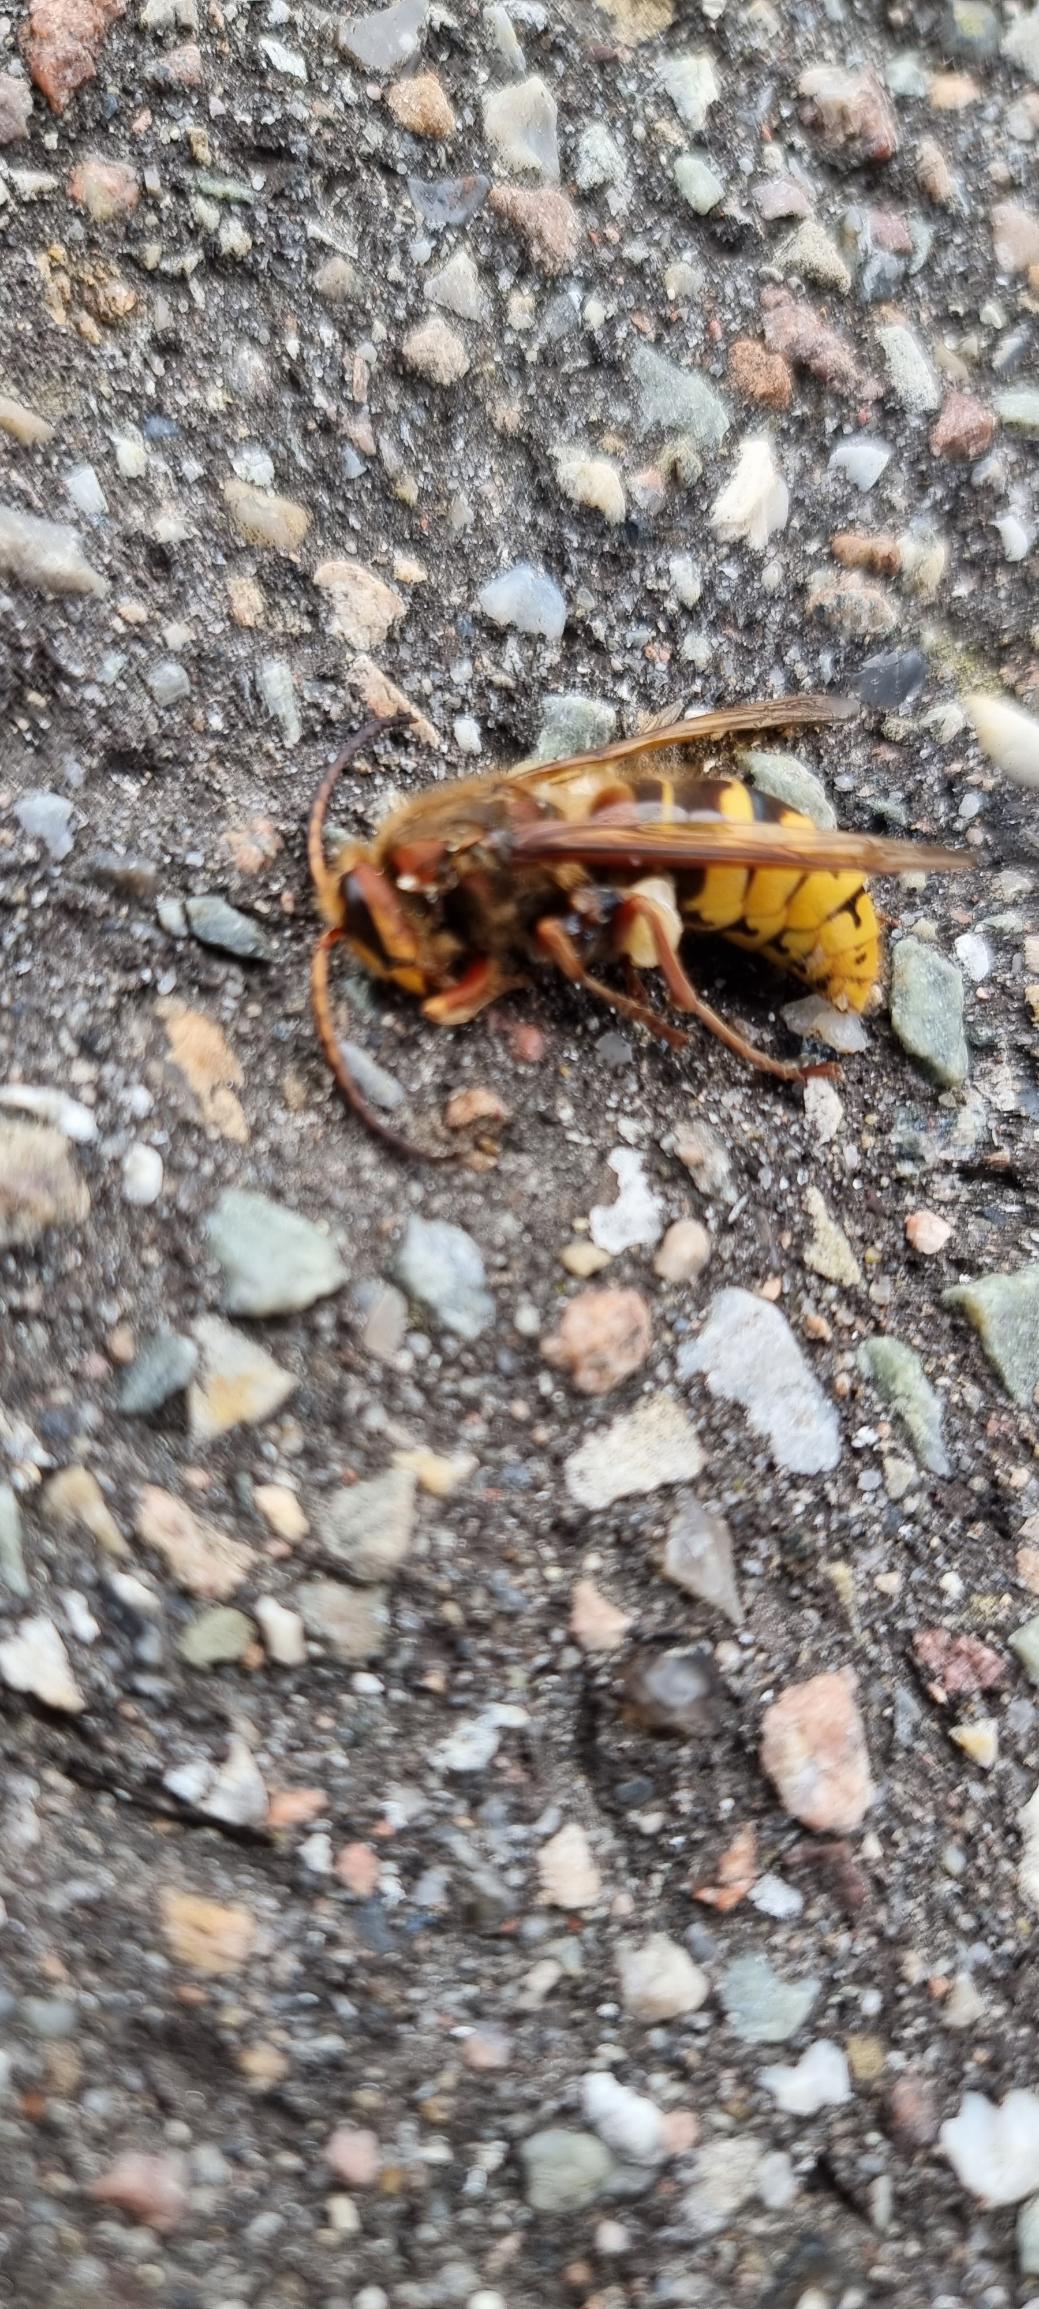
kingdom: Animalia
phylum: Arthropoda
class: Insecta
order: Hymenoptera
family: Vespidae
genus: Vespa
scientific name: Vespa crabro
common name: Stor gedehams
